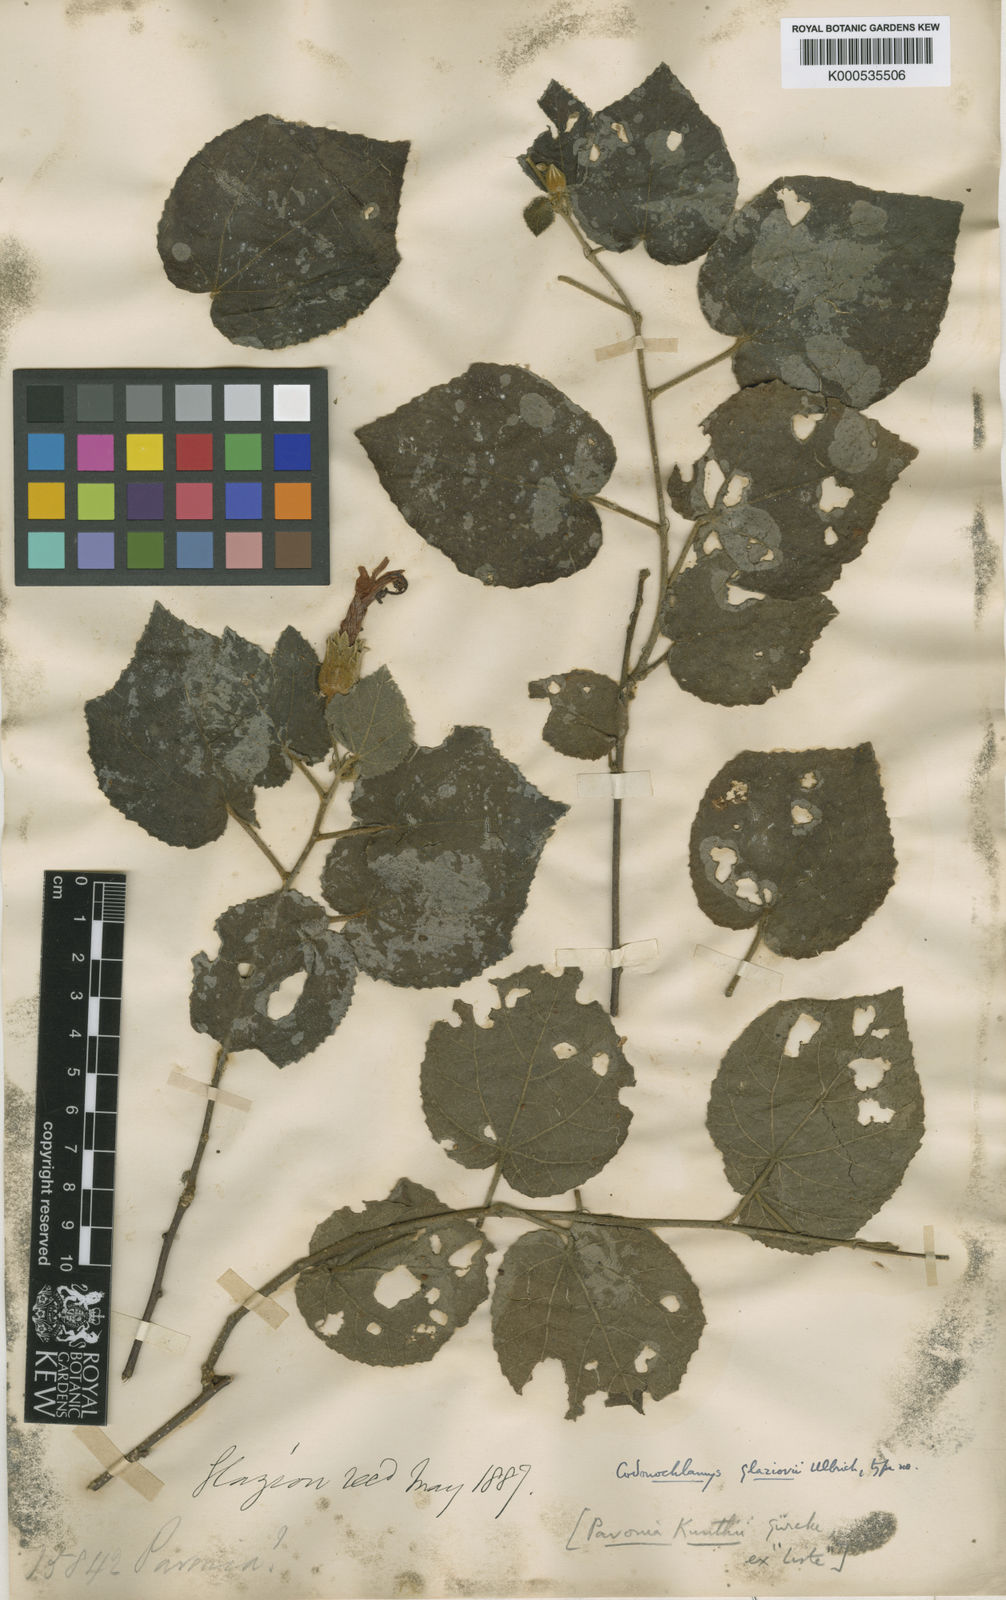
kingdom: Plantae
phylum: Tracheophyta
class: Magnoliopsida
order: Malvales
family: Malvaceae
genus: Pavonia
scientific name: Pavonia glaziovii
